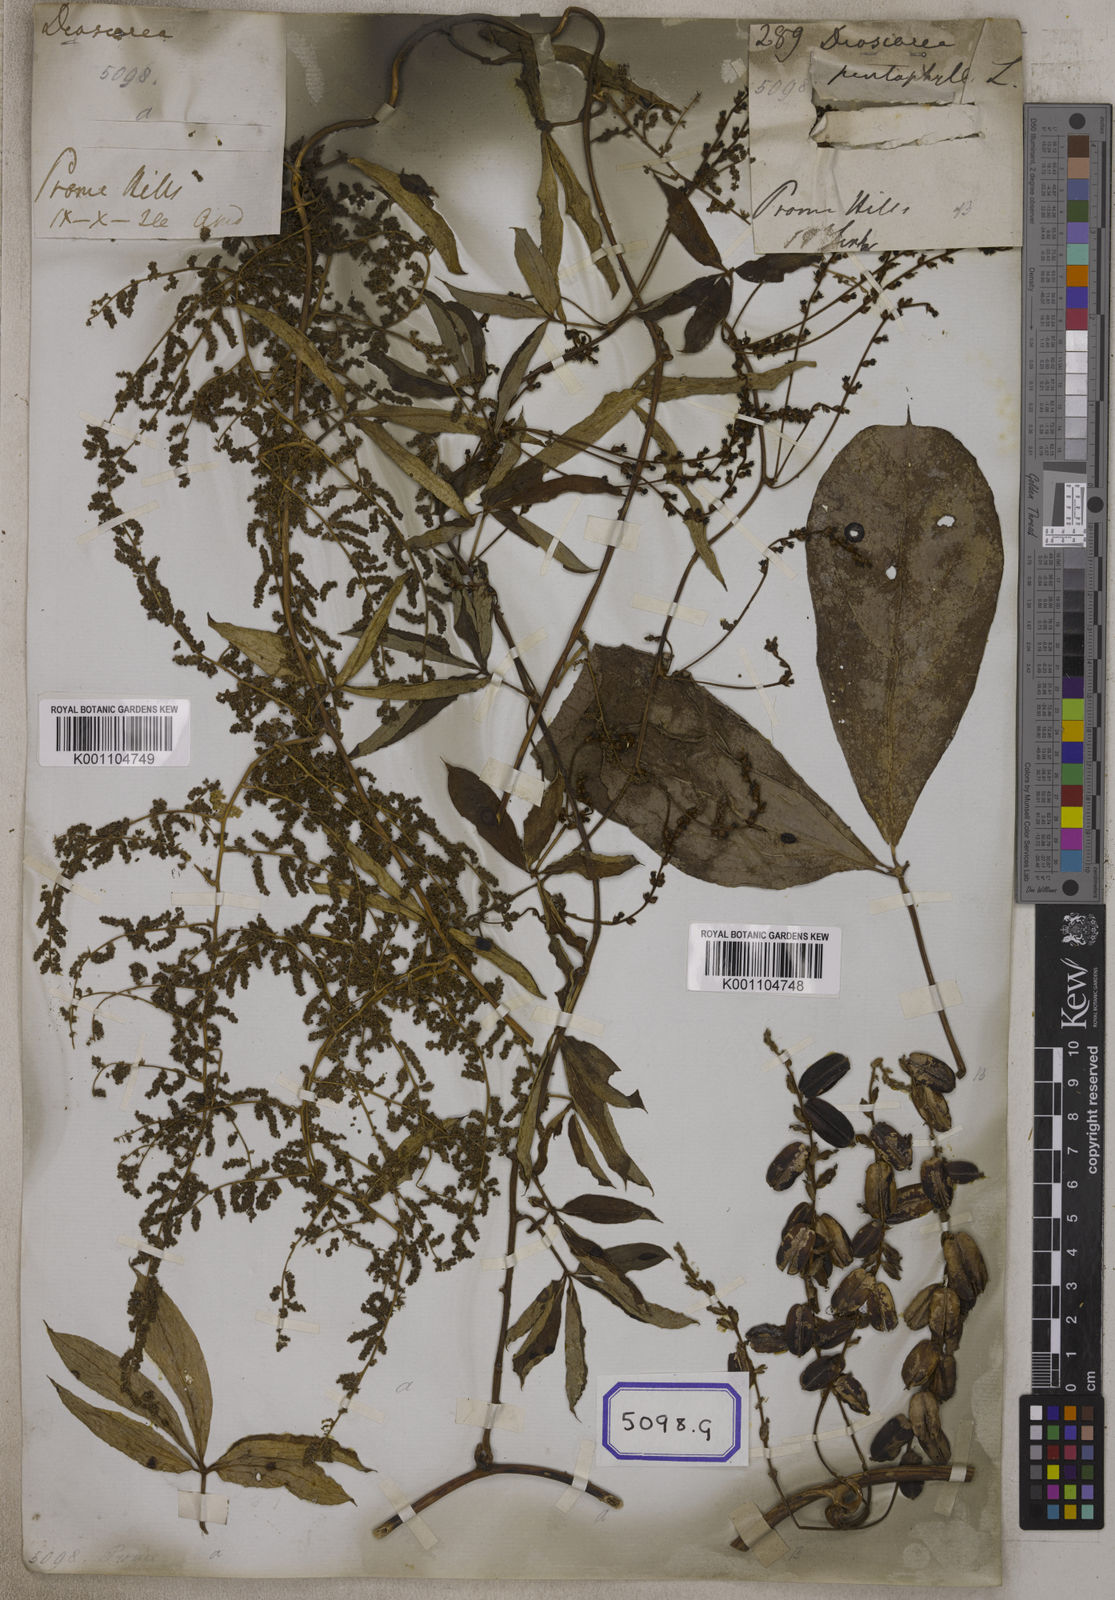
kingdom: Plantae
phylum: Tracheophyta
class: Liliopsida
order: Dioscoreales
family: Dioscoreaceae
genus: Dioscorea
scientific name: Dioscorea
